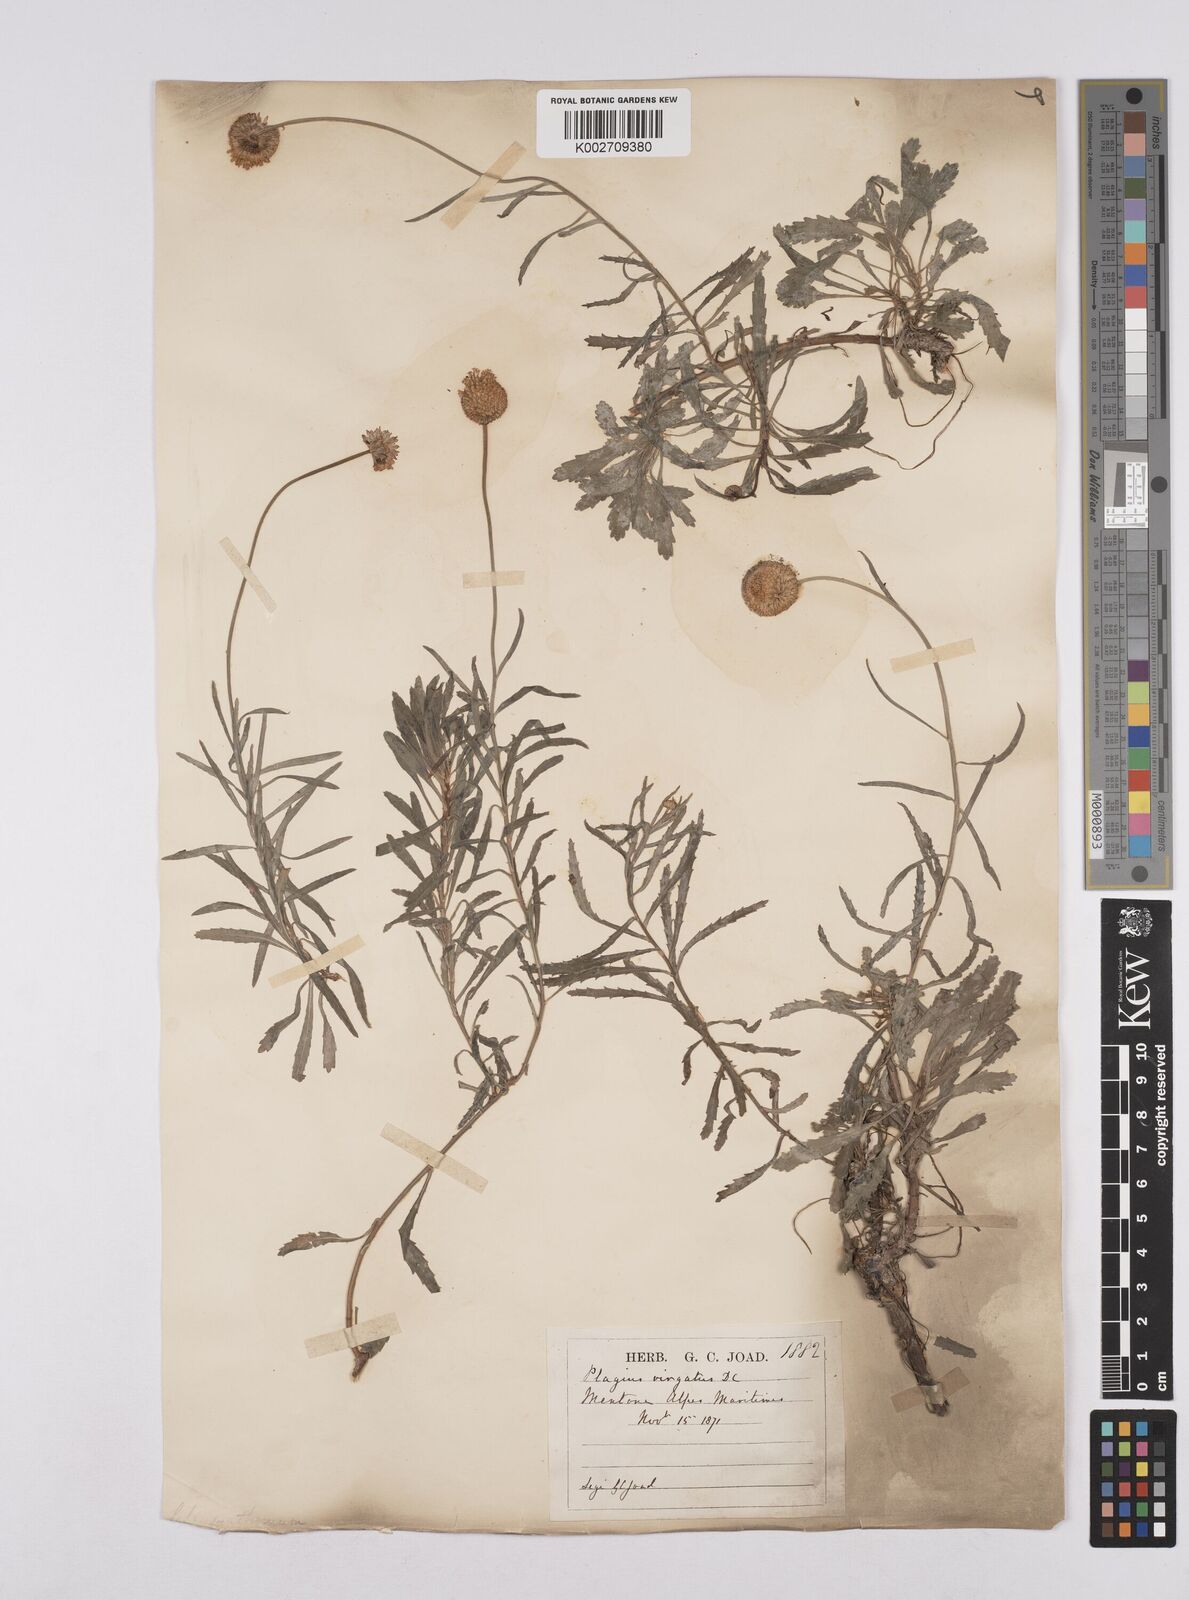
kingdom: Plantae
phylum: Tracheophyta
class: Magnoliopsida
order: Asterales
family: Asteraceae
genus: Leucanthemum
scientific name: Leucanthemum vulgare
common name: Oxeye daisy
